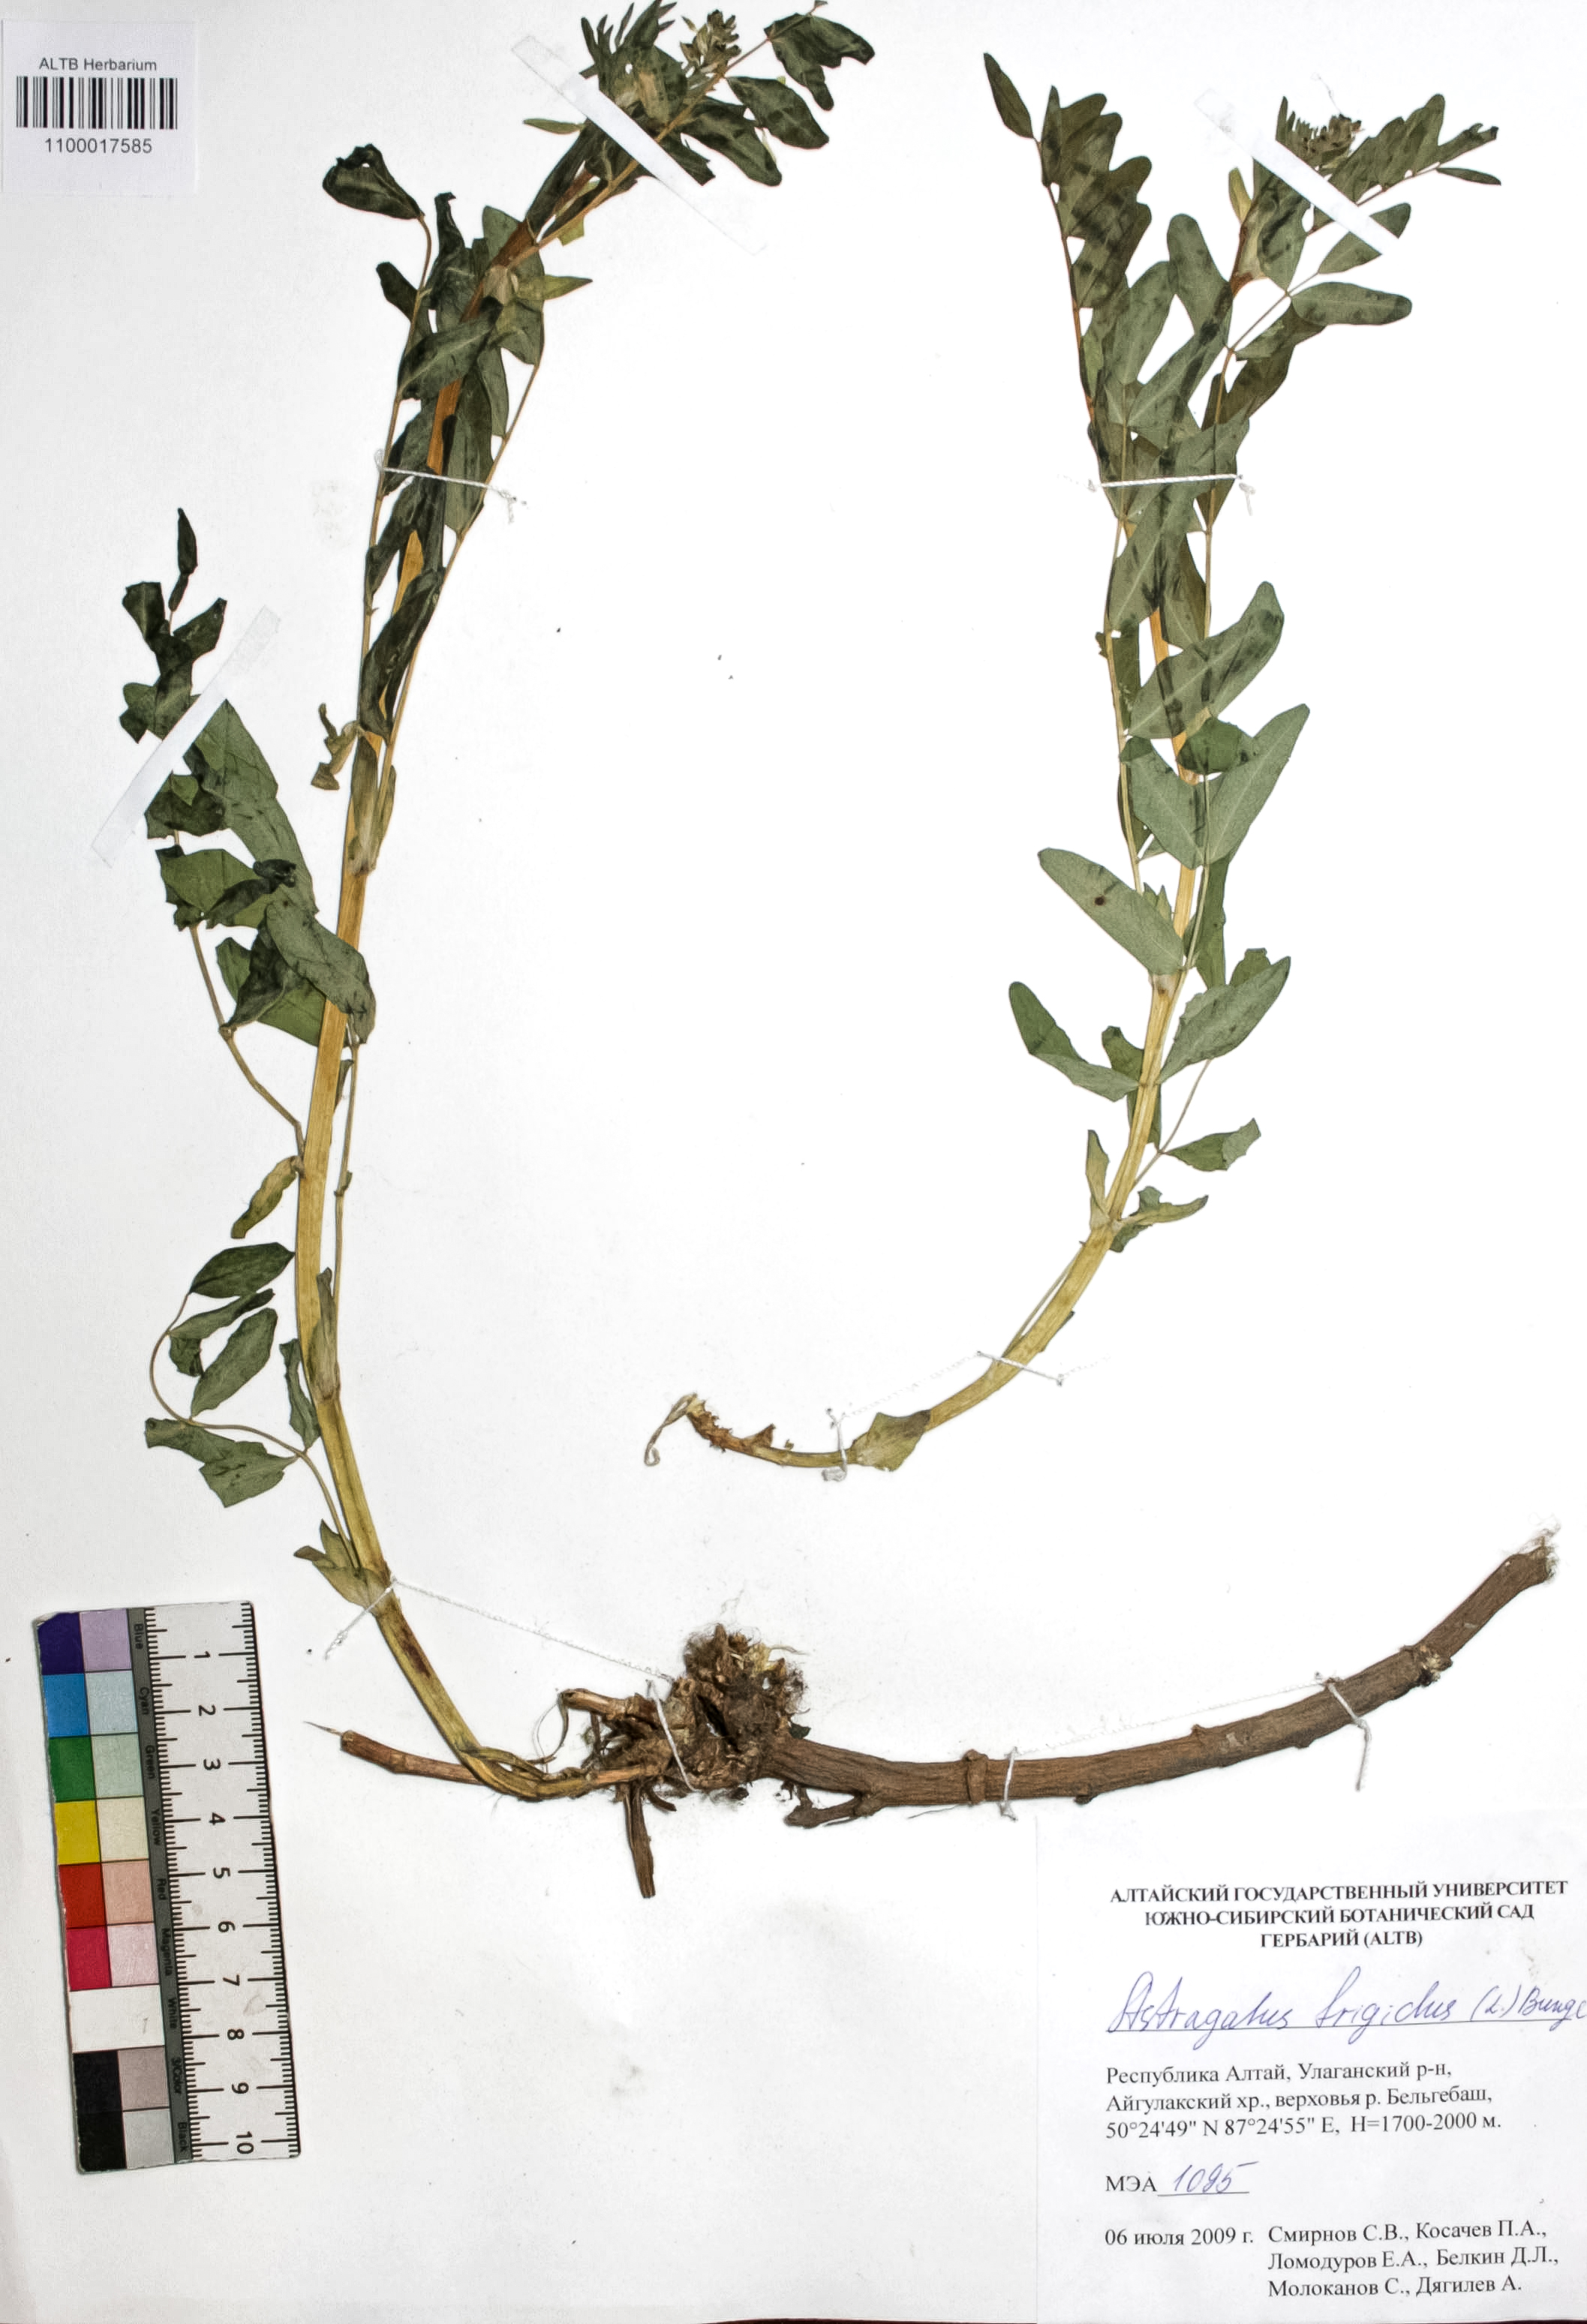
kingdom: Plantae
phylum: Tracheophyta
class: Magnoliopsida
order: Fabales
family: Fabaceae
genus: Astragalus
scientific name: Astragalus frigidus
